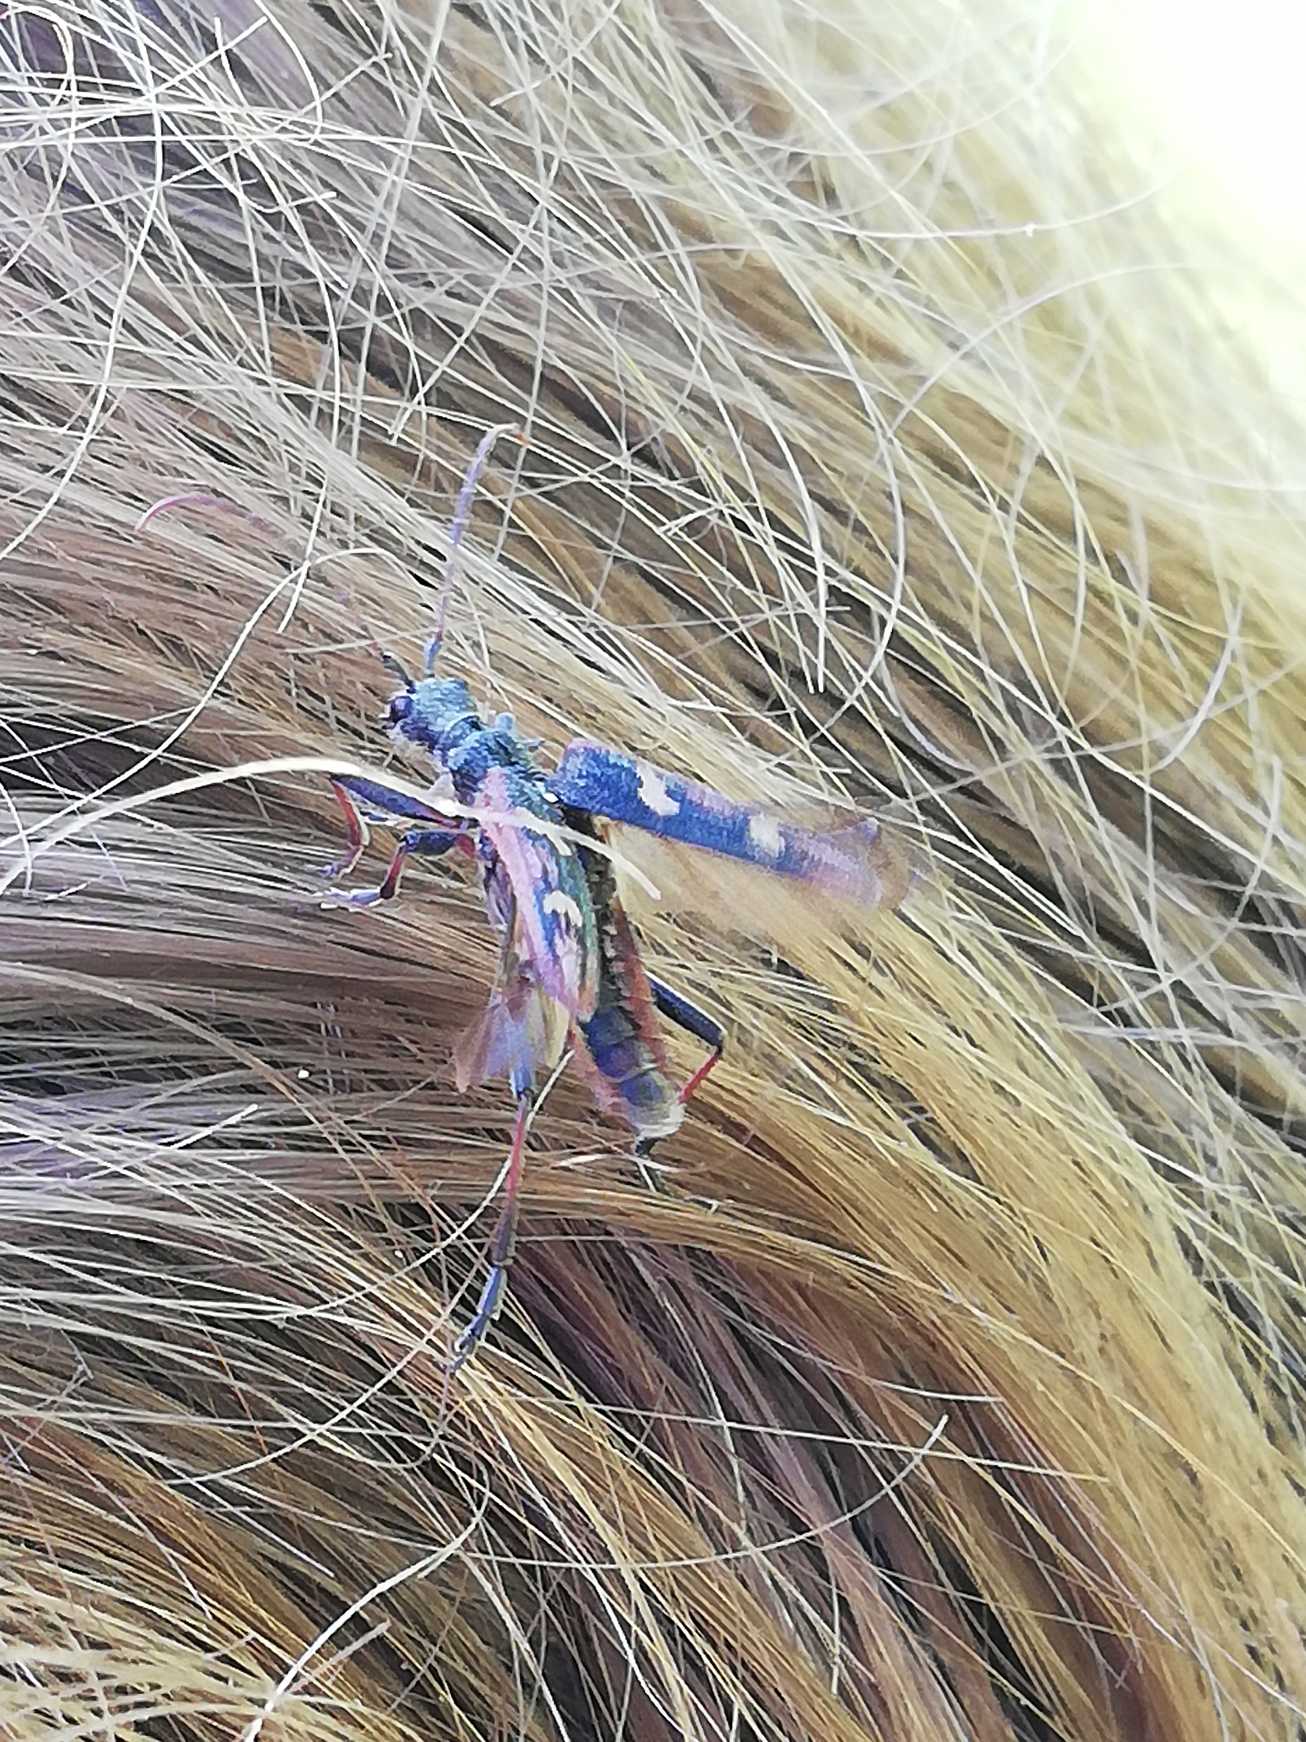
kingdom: Animalia
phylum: Arthropoda
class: Insecta
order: Coleoptera
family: Cerambycidae
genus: Rhagium
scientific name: Rhagium bifasciatum
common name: Båndet tandbuk
